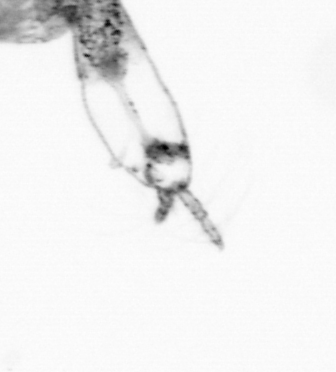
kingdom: Animalia
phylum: Arthropoda
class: Copepoda
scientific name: Copepoda
